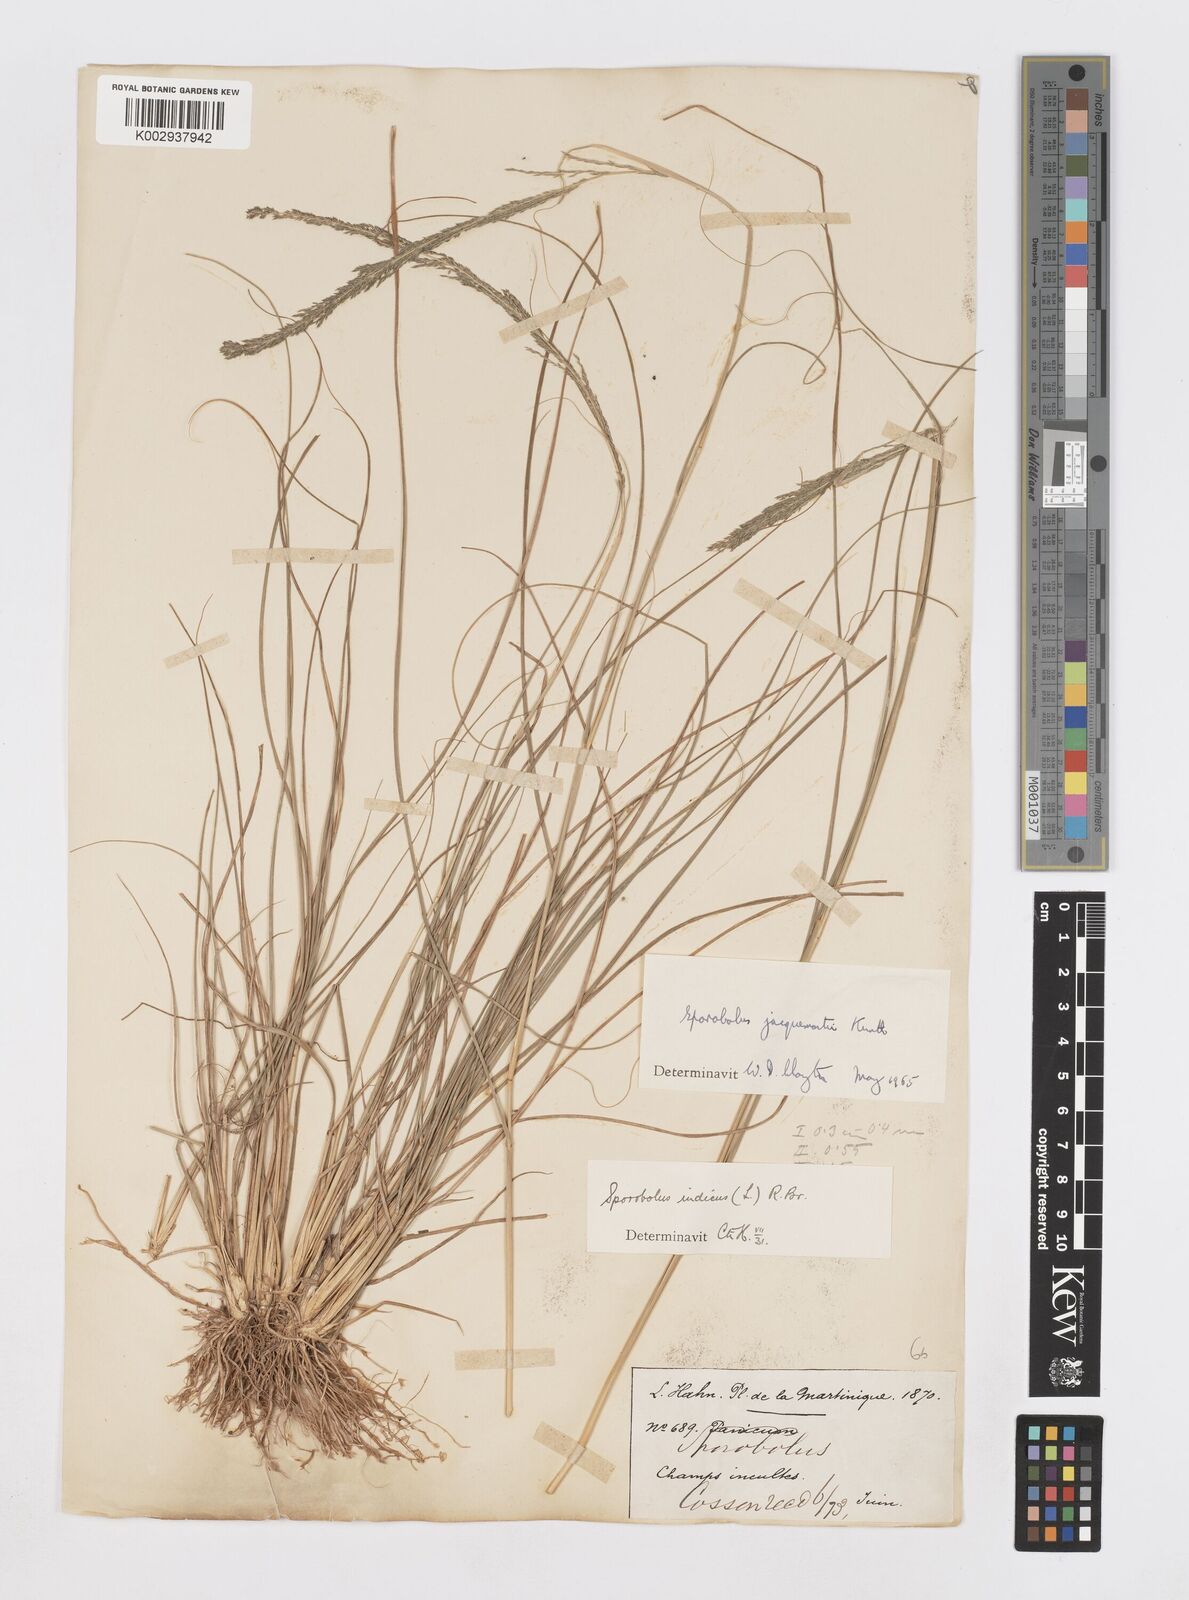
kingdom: Plantae
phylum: Tracheophyta
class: Liliopsida
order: Poales
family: Poaceae
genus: Sporobolus
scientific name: Sporobolus pyramidalis
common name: West indian dropseed
